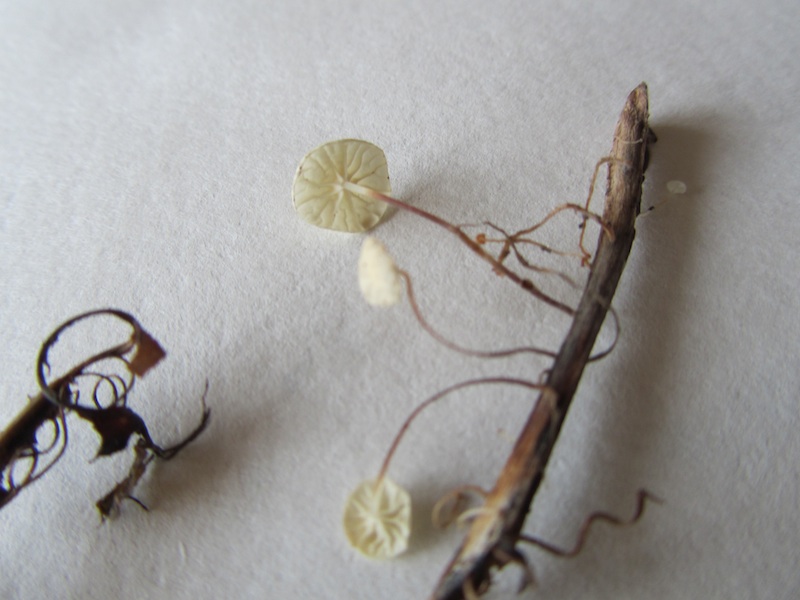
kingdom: Fungi
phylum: Basidiomycota
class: Agaricomycetes
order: Agaricales
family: Marasmiaceae
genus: Marasmius
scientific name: Marasmius epiphyllus
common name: blad-bruskhat
